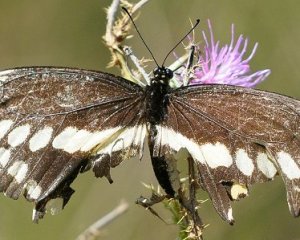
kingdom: Animalia
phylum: Arthropoda
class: Insecta
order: Lepidoptera
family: Papilionidae
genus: Papilio
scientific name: Papilio cresphontes
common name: Eastern Giant Swallowtail
